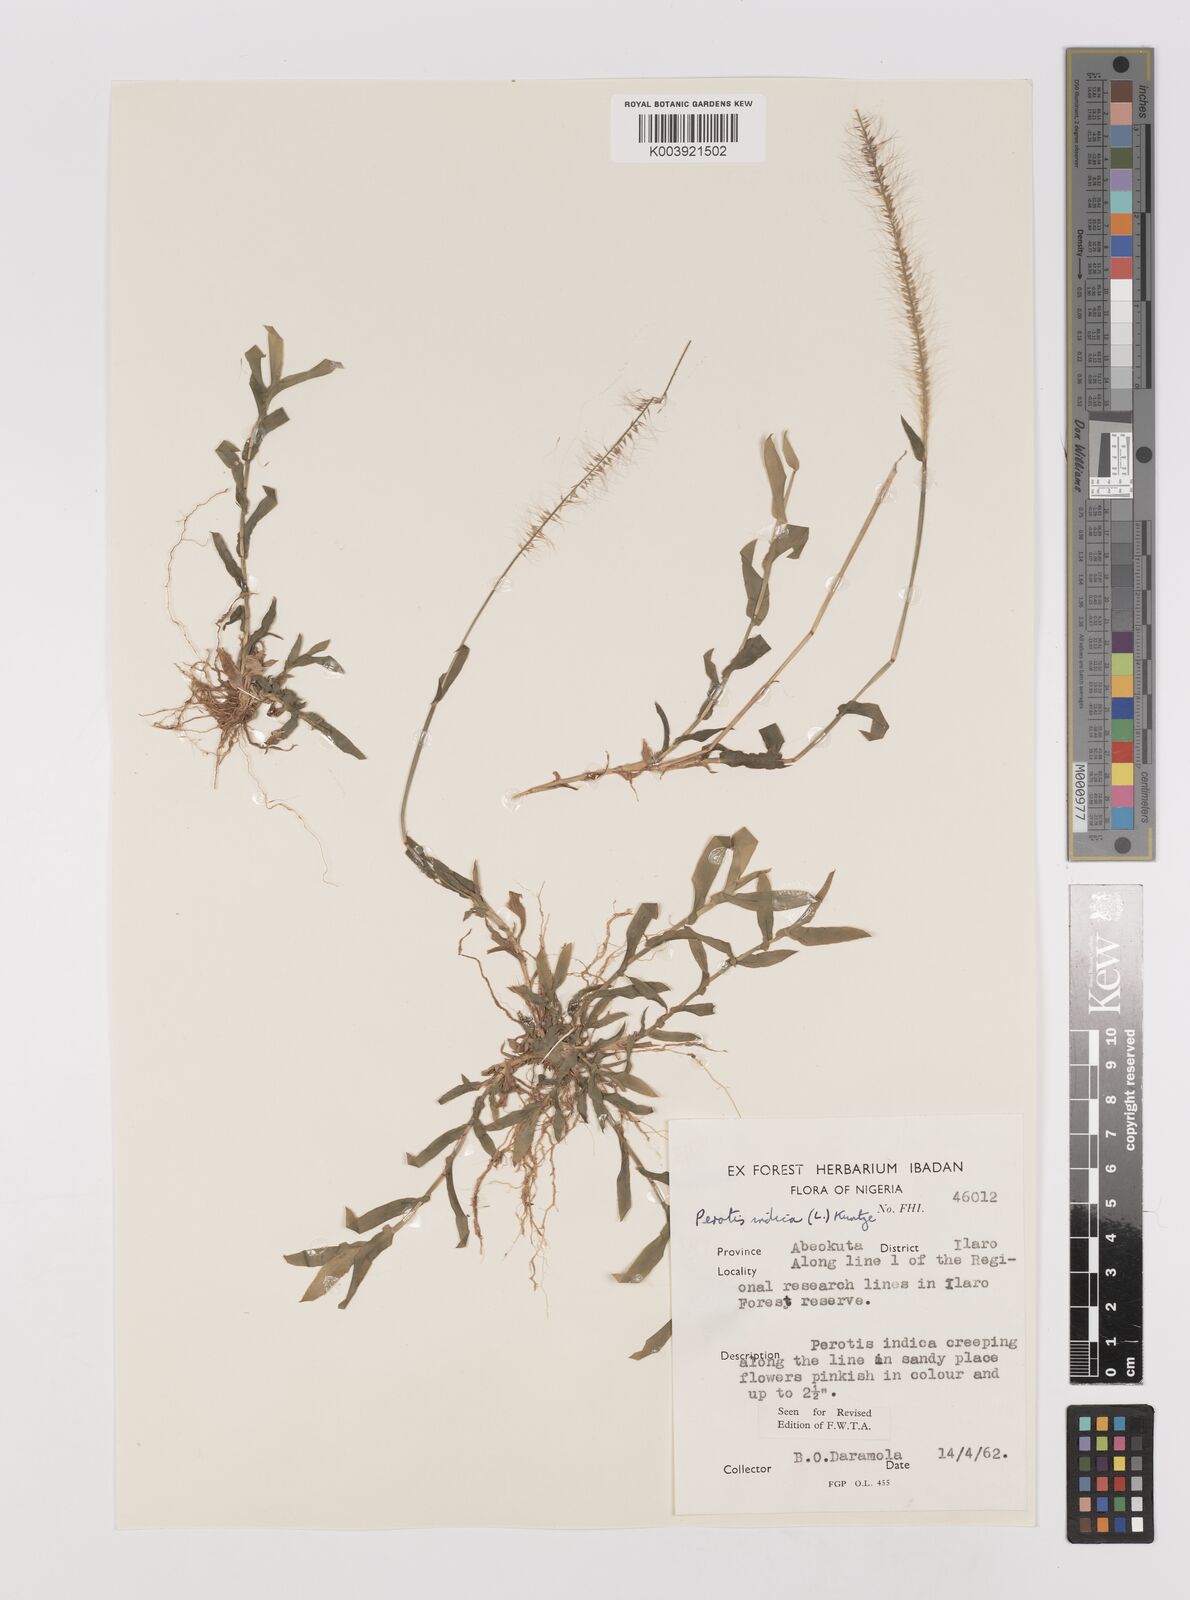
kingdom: Plantae
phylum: Tracheophyta
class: Liliopsida
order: Poales
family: Poaceae
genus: Perotis
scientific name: Perotis indica
